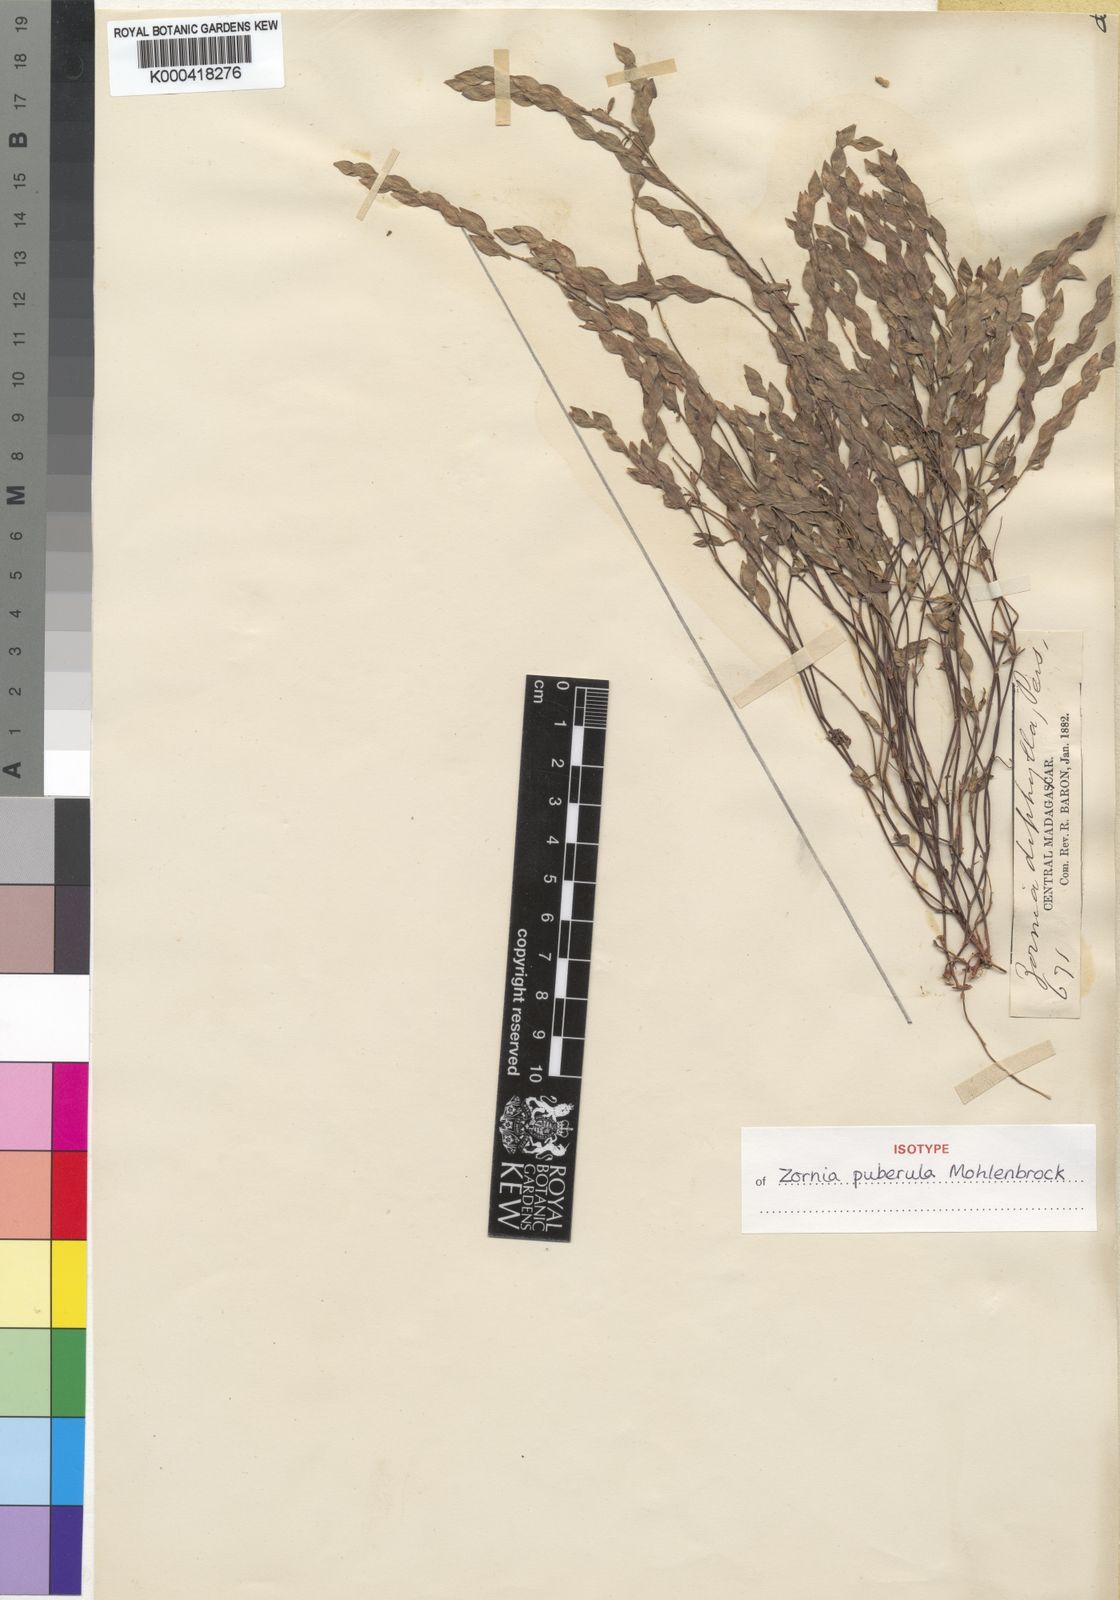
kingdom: Plantae
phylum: Tracheophyta
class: Magnoliopsida
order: Fabales
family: Fabaceae
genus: Zornia
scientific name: Zornia puberula
